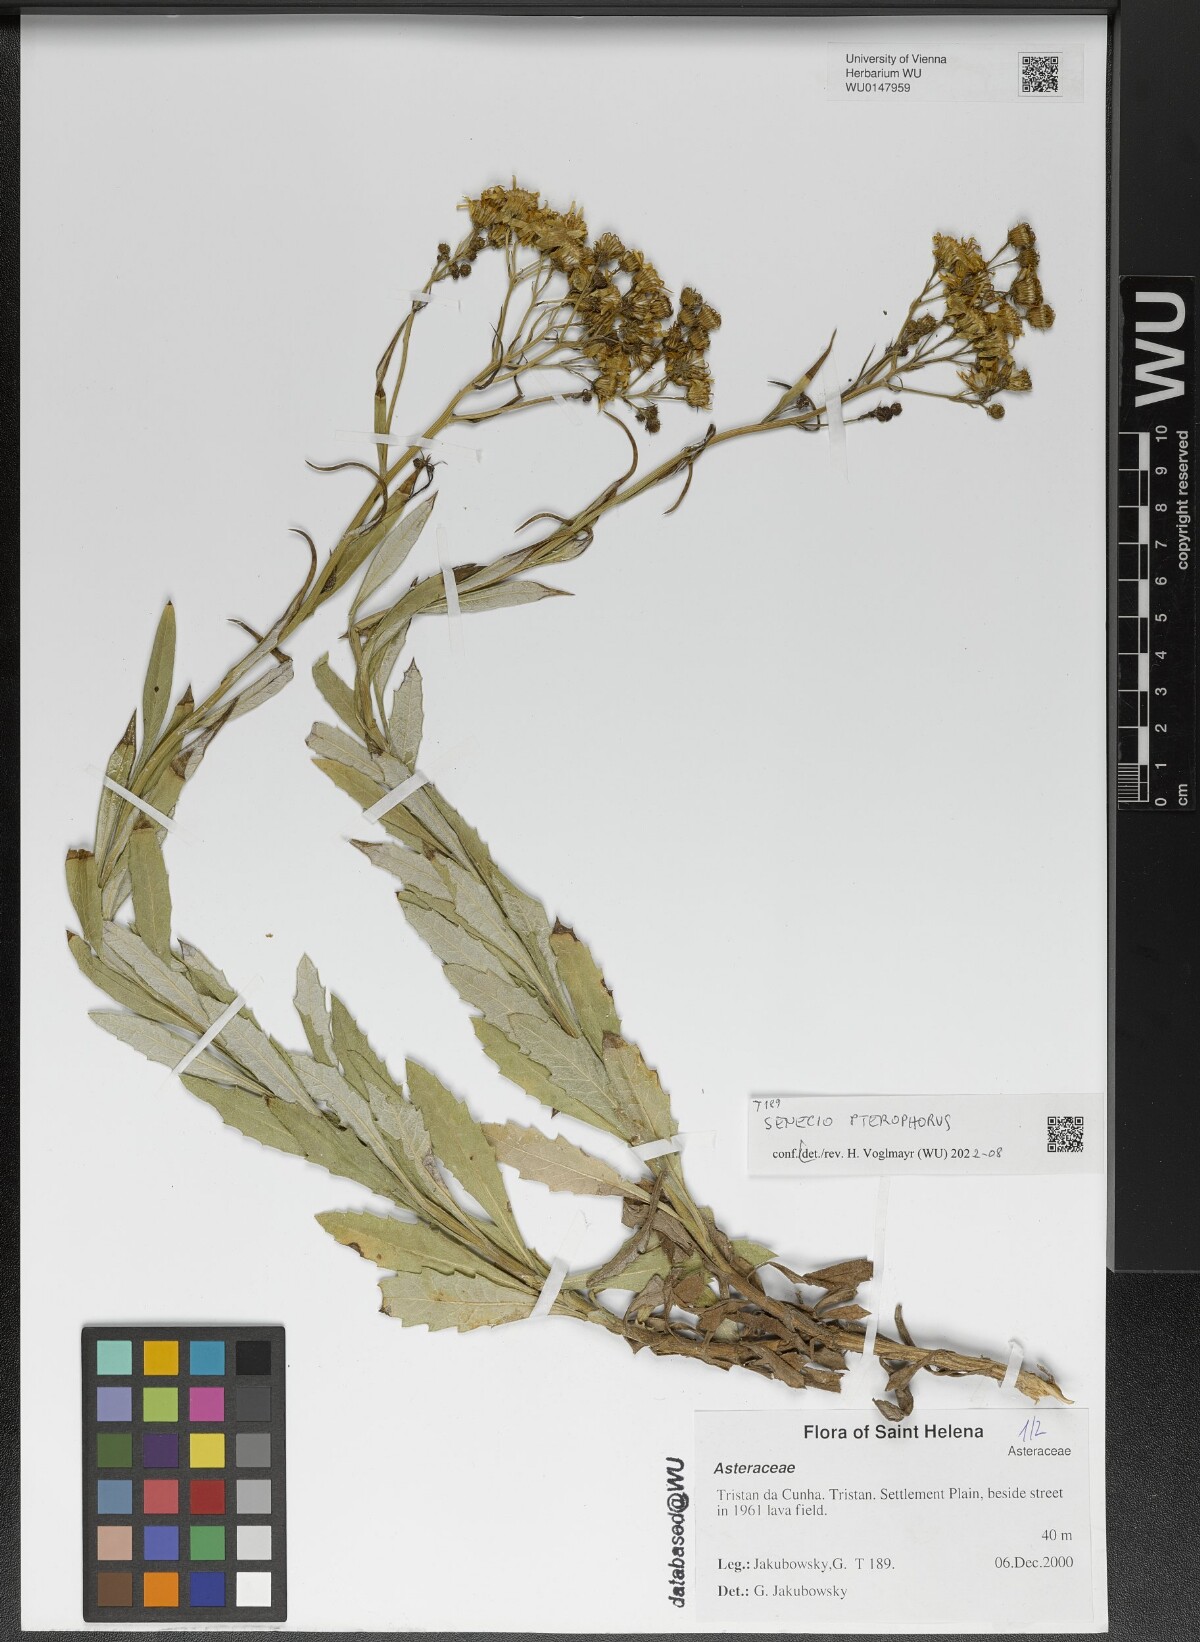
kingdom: Plantae
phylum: Tracheophyta
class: Magnoliopsida
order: Asterales
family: Asteraceae
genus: Senecio
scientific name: Senecio pterophorus
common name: Shoddy ragwort
